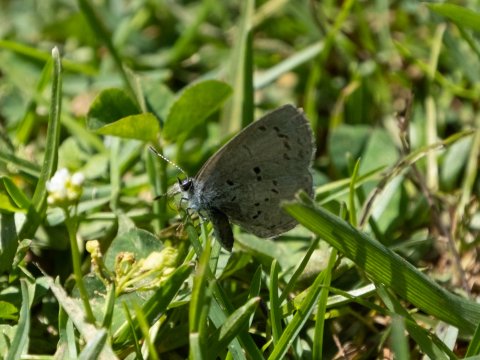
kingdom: Animalia
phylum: Arthropoda
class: Insecta
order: Lepidoptera
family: Lycaenidae
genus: Celastrina
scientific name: Celastrina ladon
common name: Spring Azure
